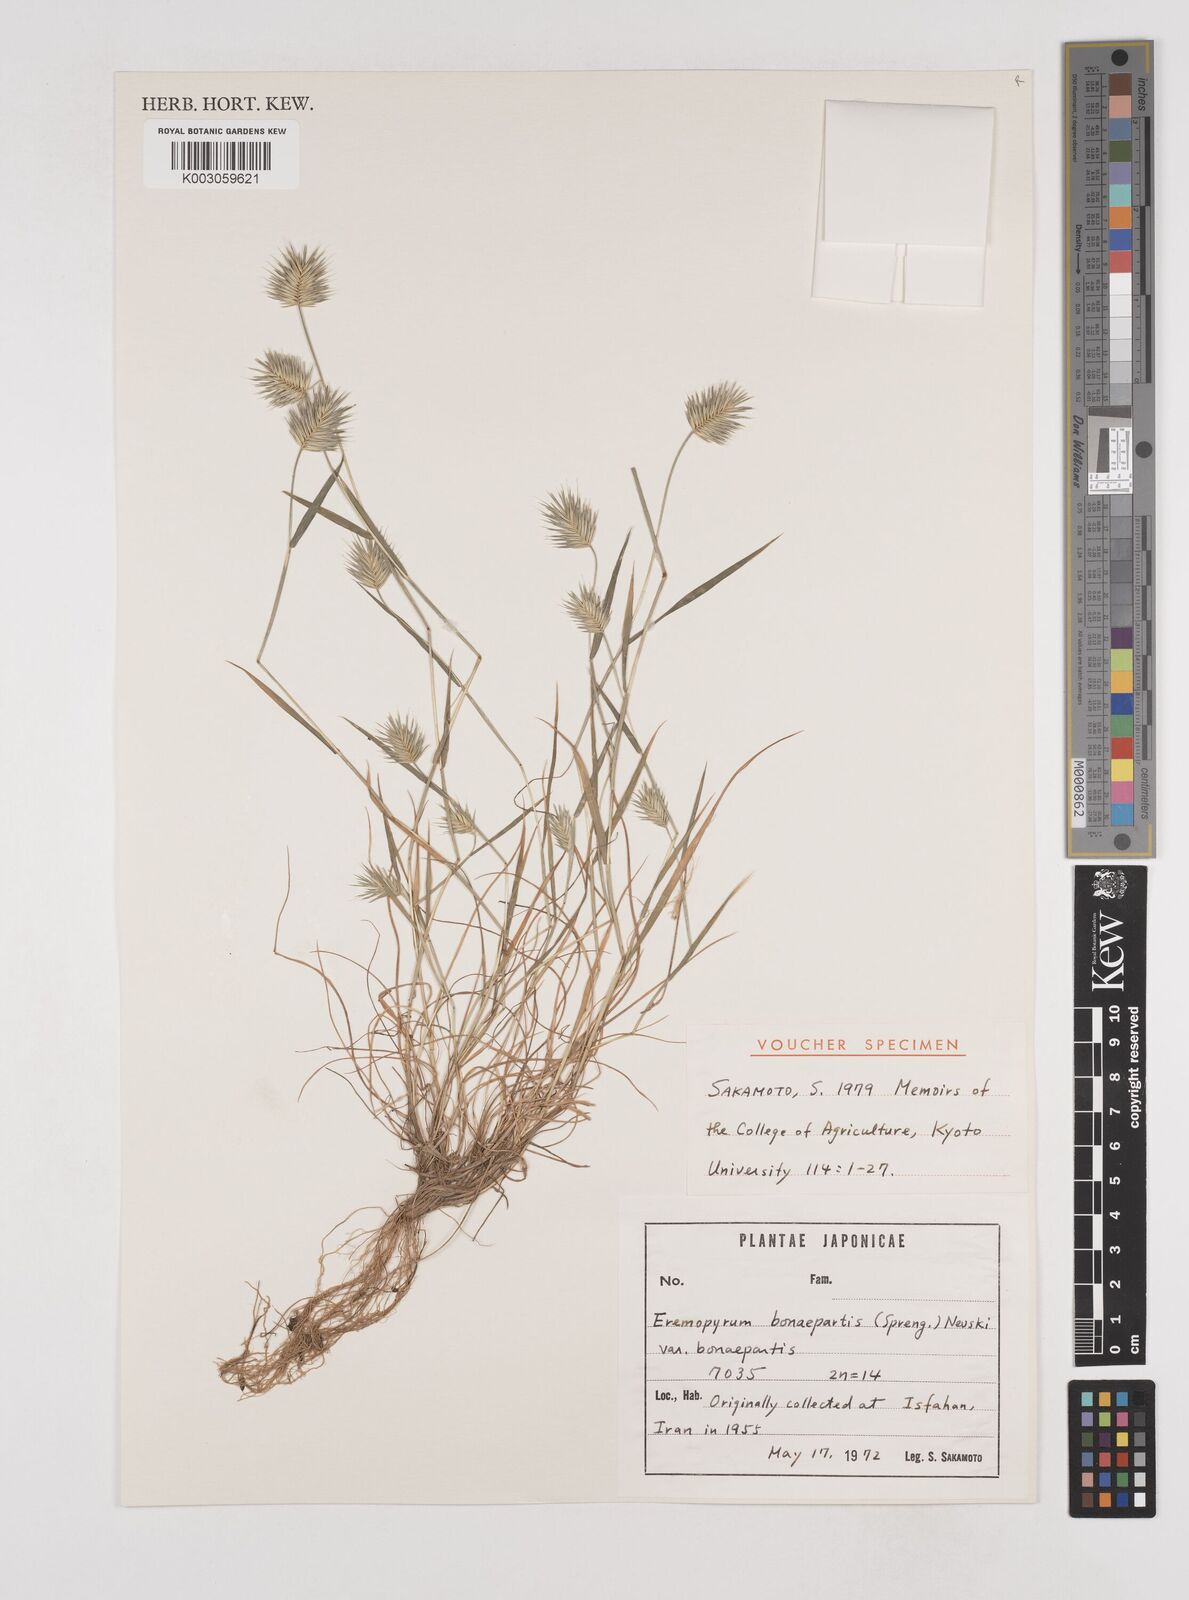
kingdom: Plantae
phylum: Tracheophyta
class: Liliopsida
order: Poales
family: Poaceae
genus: Eremopyrum
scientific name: Eremopyrum bonaepartis
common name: Tapertip false wheatgrass
